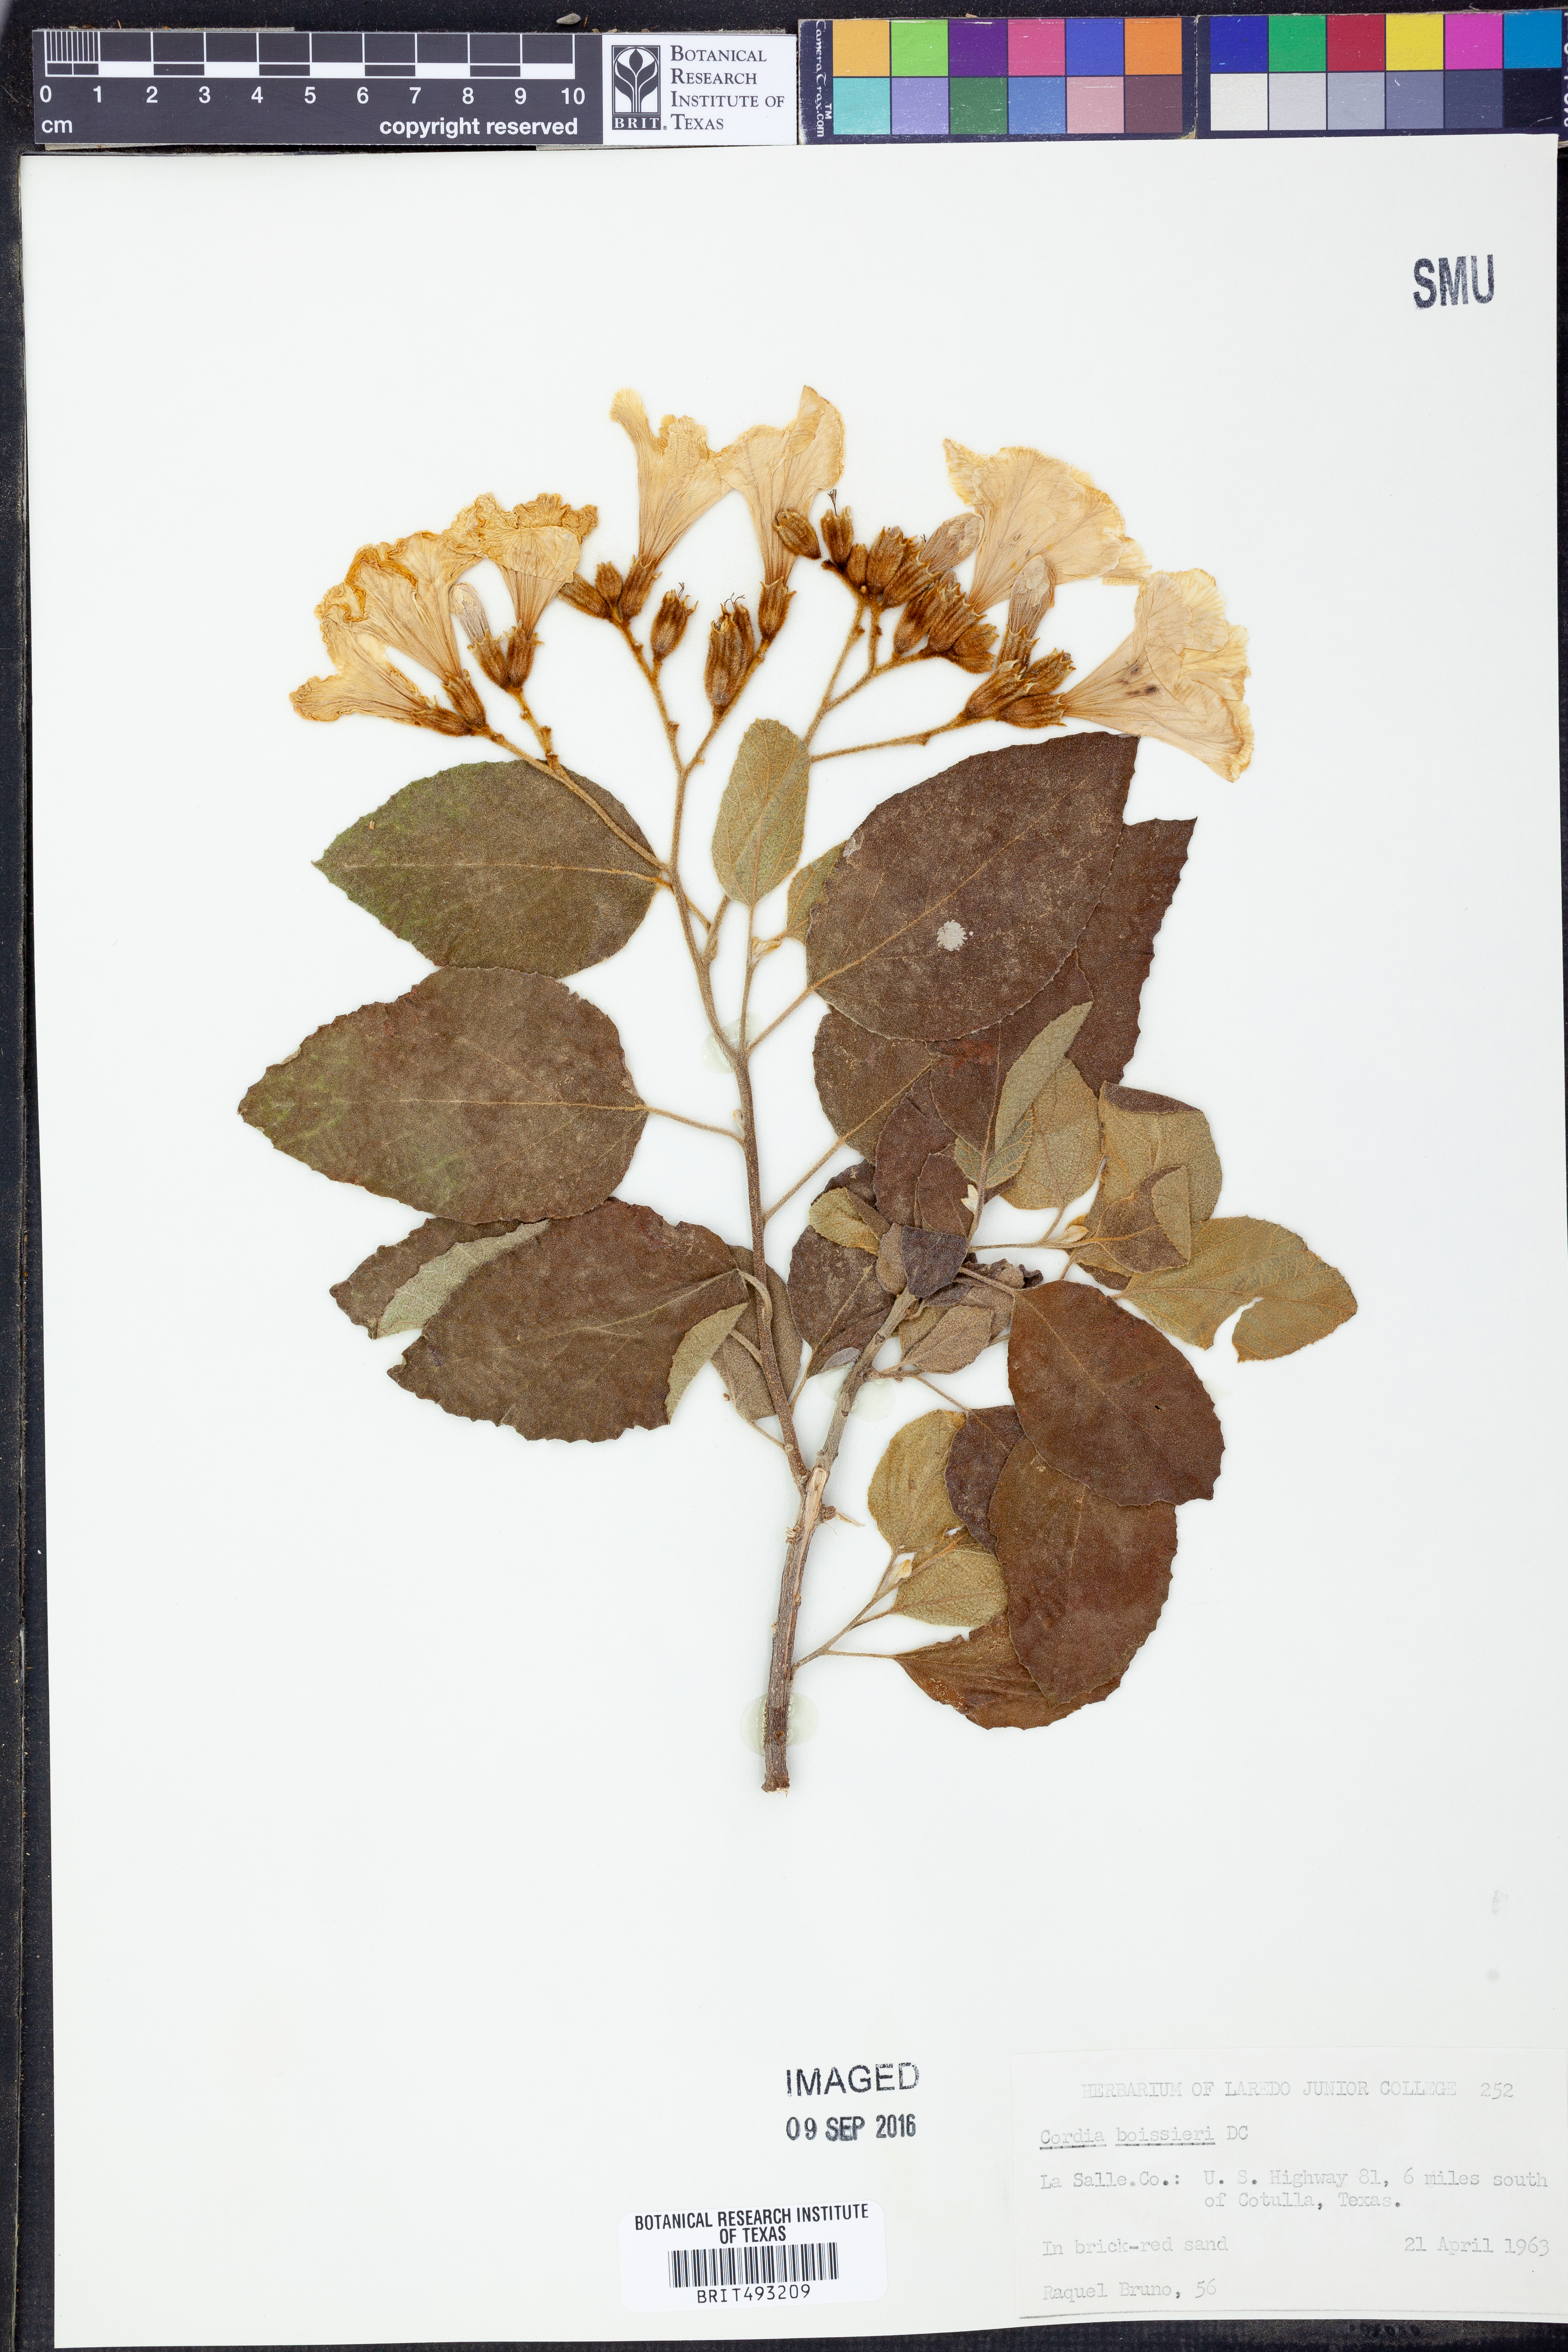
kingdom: Plantae
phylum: Tracheophyta
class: Magnoliopsida
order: Boraginales
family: Cordiaceae
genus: Cordia
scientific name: Cordia boissieri
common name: Mexican-olive
